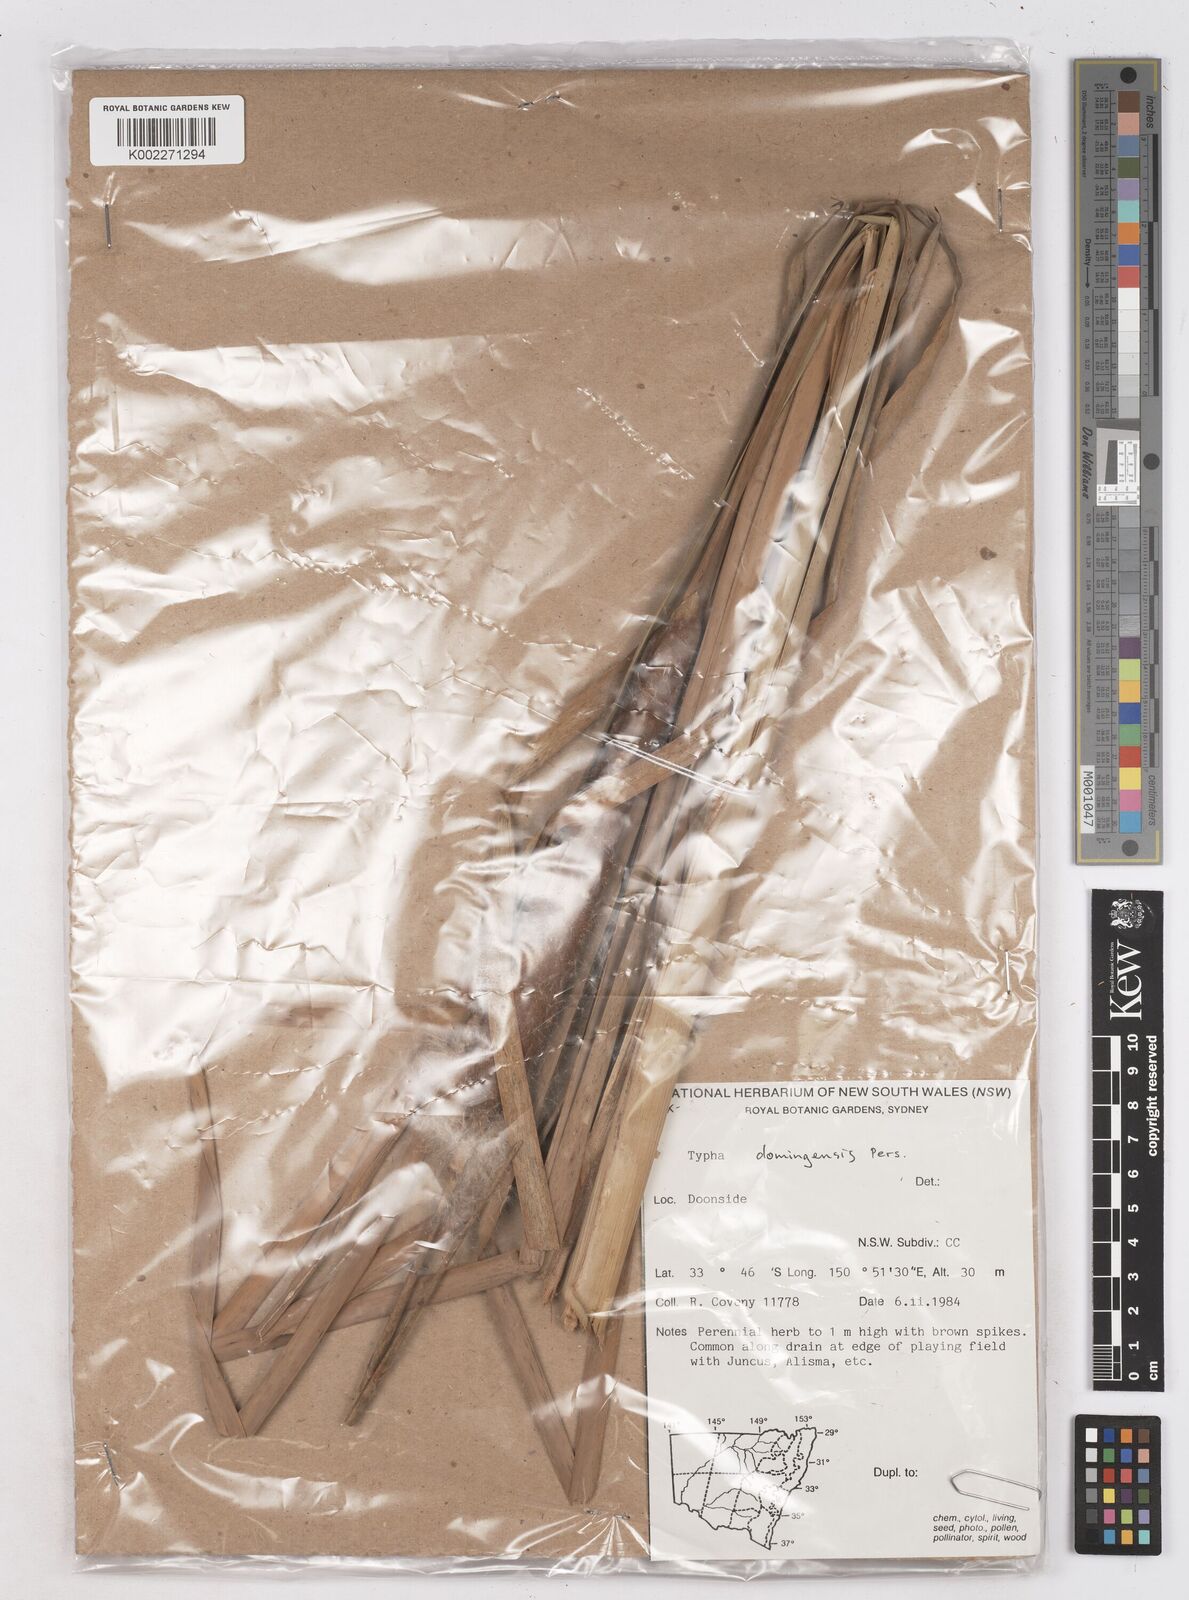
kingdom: Plantae
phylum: Tracheophyta
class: Liliopsida
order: Poales
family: Typhaceae
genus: Typha
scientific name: Typha domingensis
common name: Southern cattail
